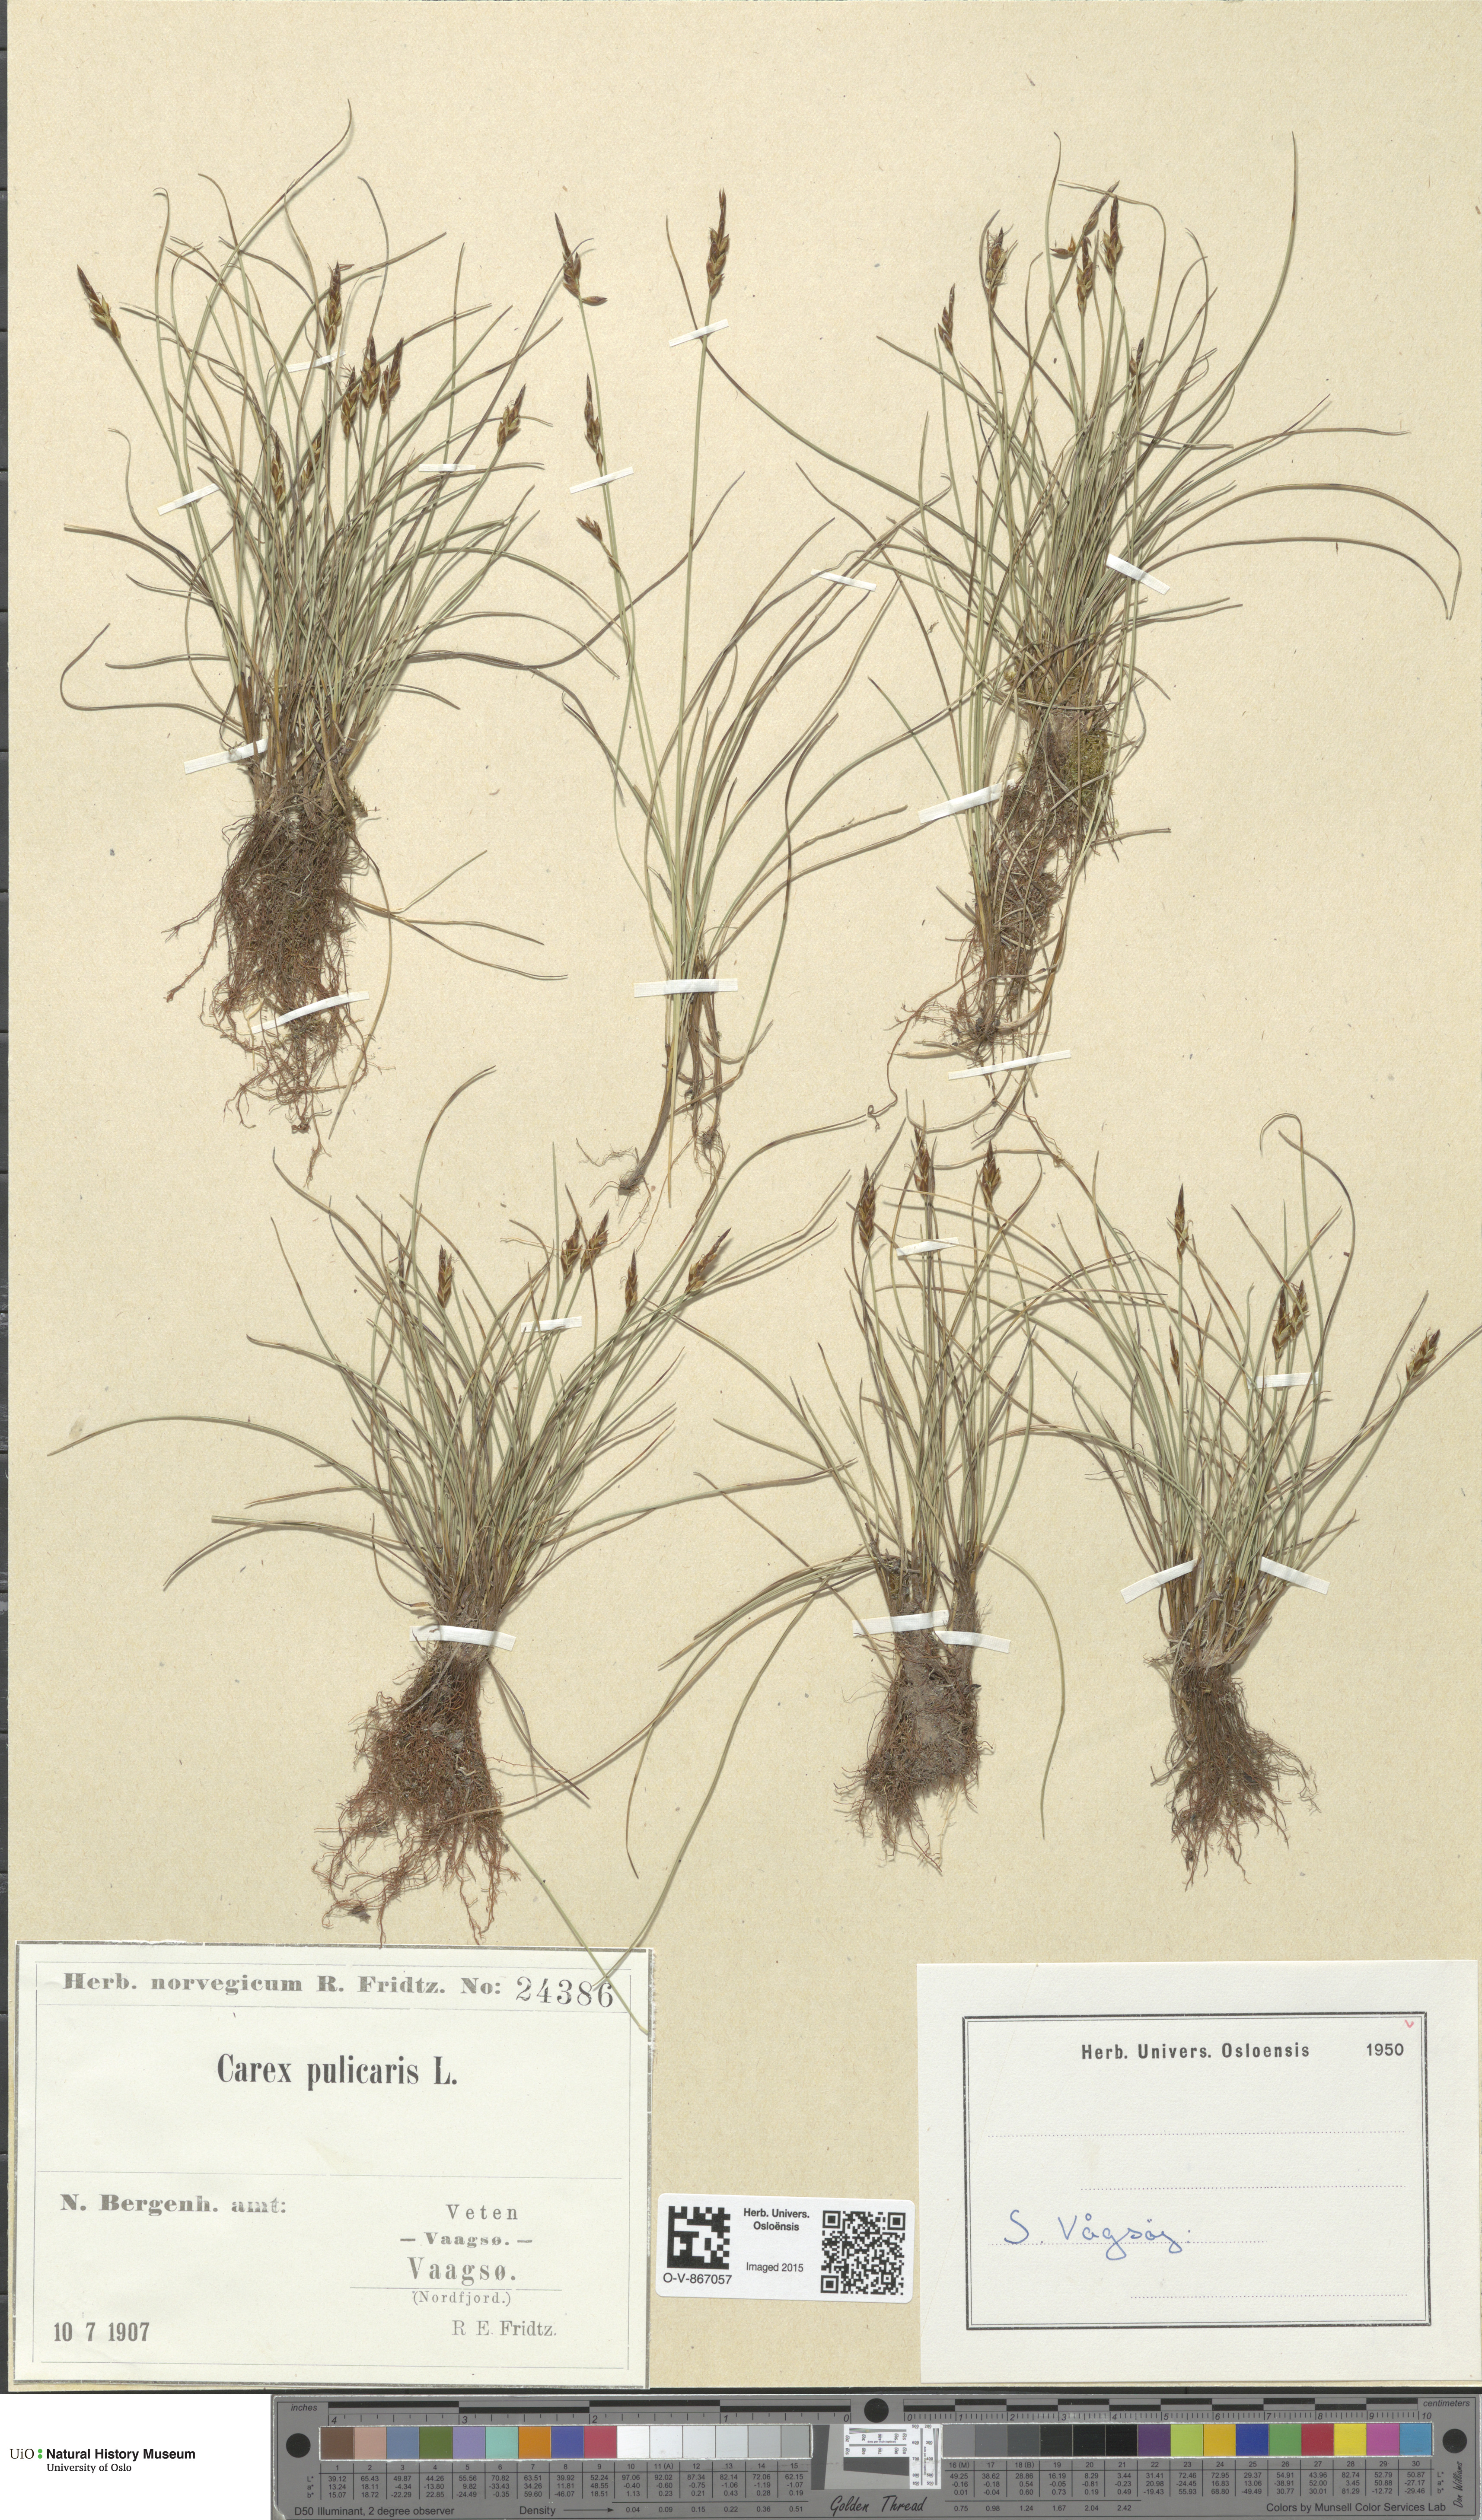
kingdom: Plantae
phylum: Tracheophyta
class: Liliopsida
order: Poales
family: Cyperaceae
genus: Carex
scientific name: Carex pulicaris
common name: Flea sedge
